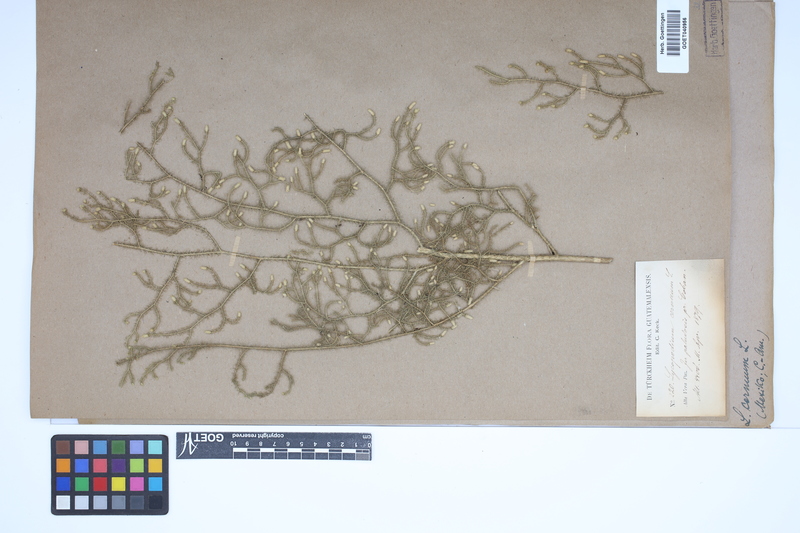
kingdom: Plantae
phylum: Tracheophyta
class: Lycopodiopsida
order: Lycopodiales
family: Lycopodiaceae
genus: Palhinhaea
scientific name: Palhinhaea cernua
